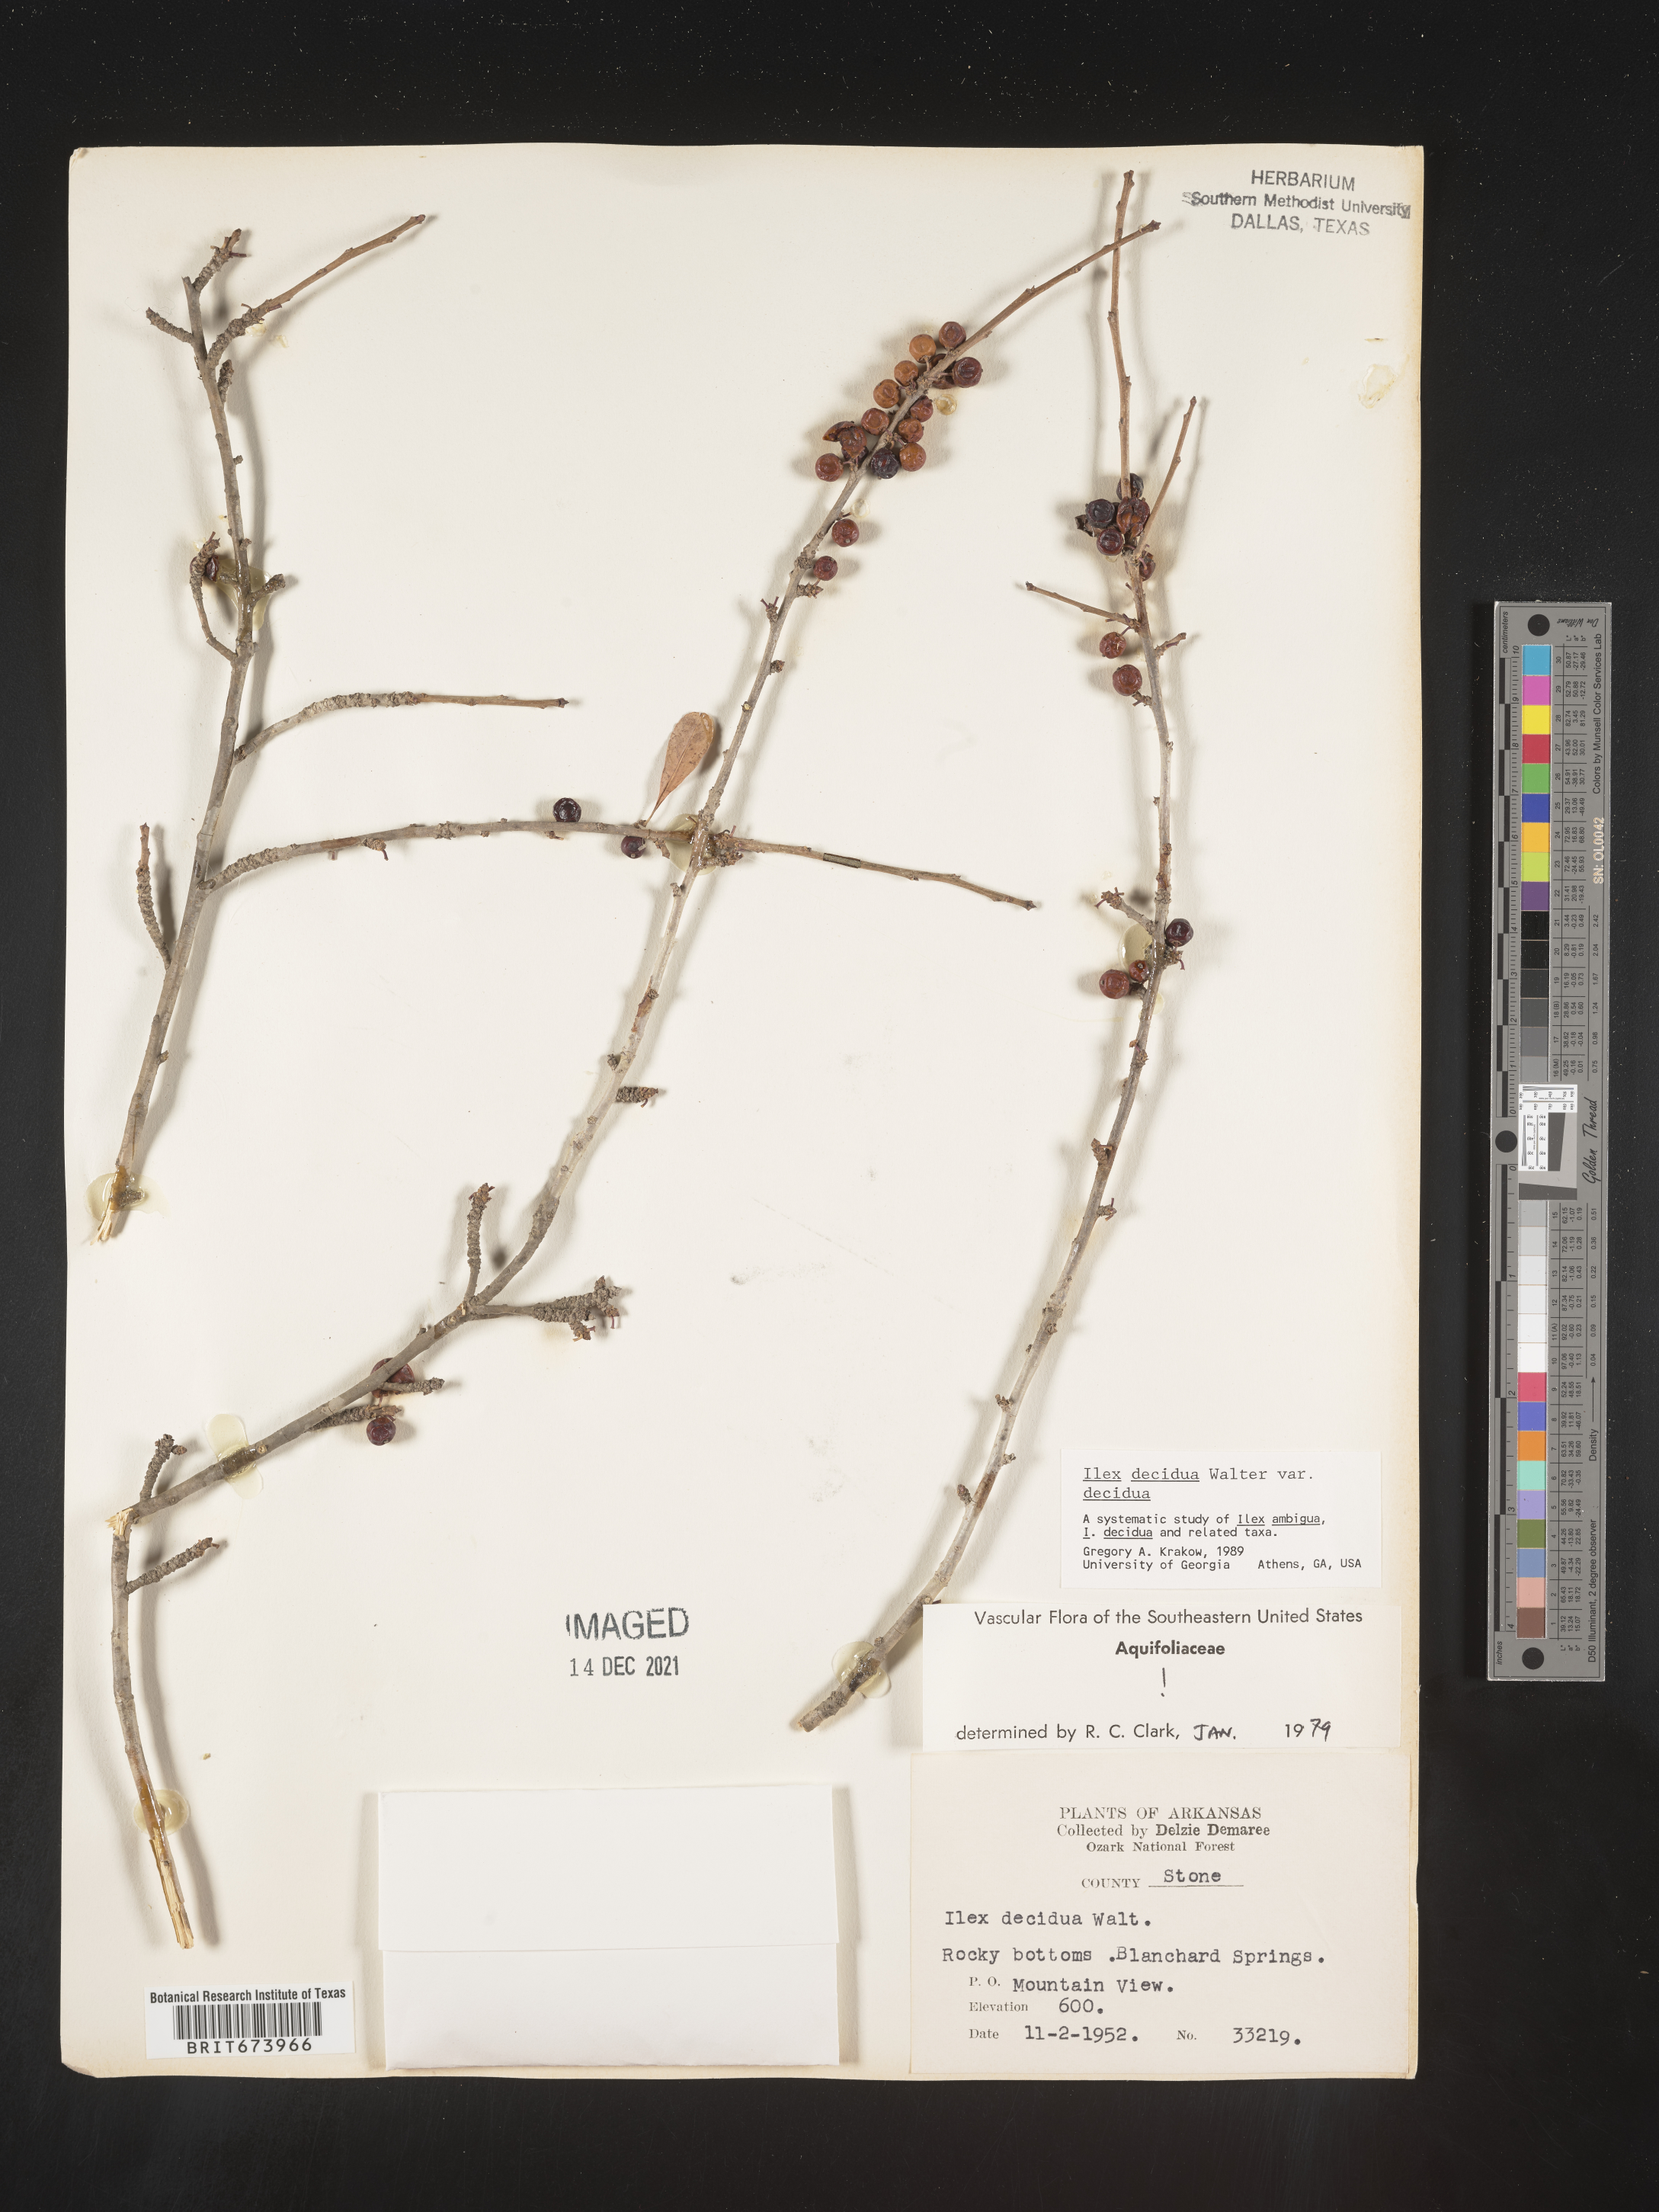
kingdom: Plantae
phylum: Tracheophyta
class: Magnoliopsida
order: Aquifoliales
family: Aquifoliaceae
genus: Ilex
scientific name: Ilex decidua
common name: Possum-haw
